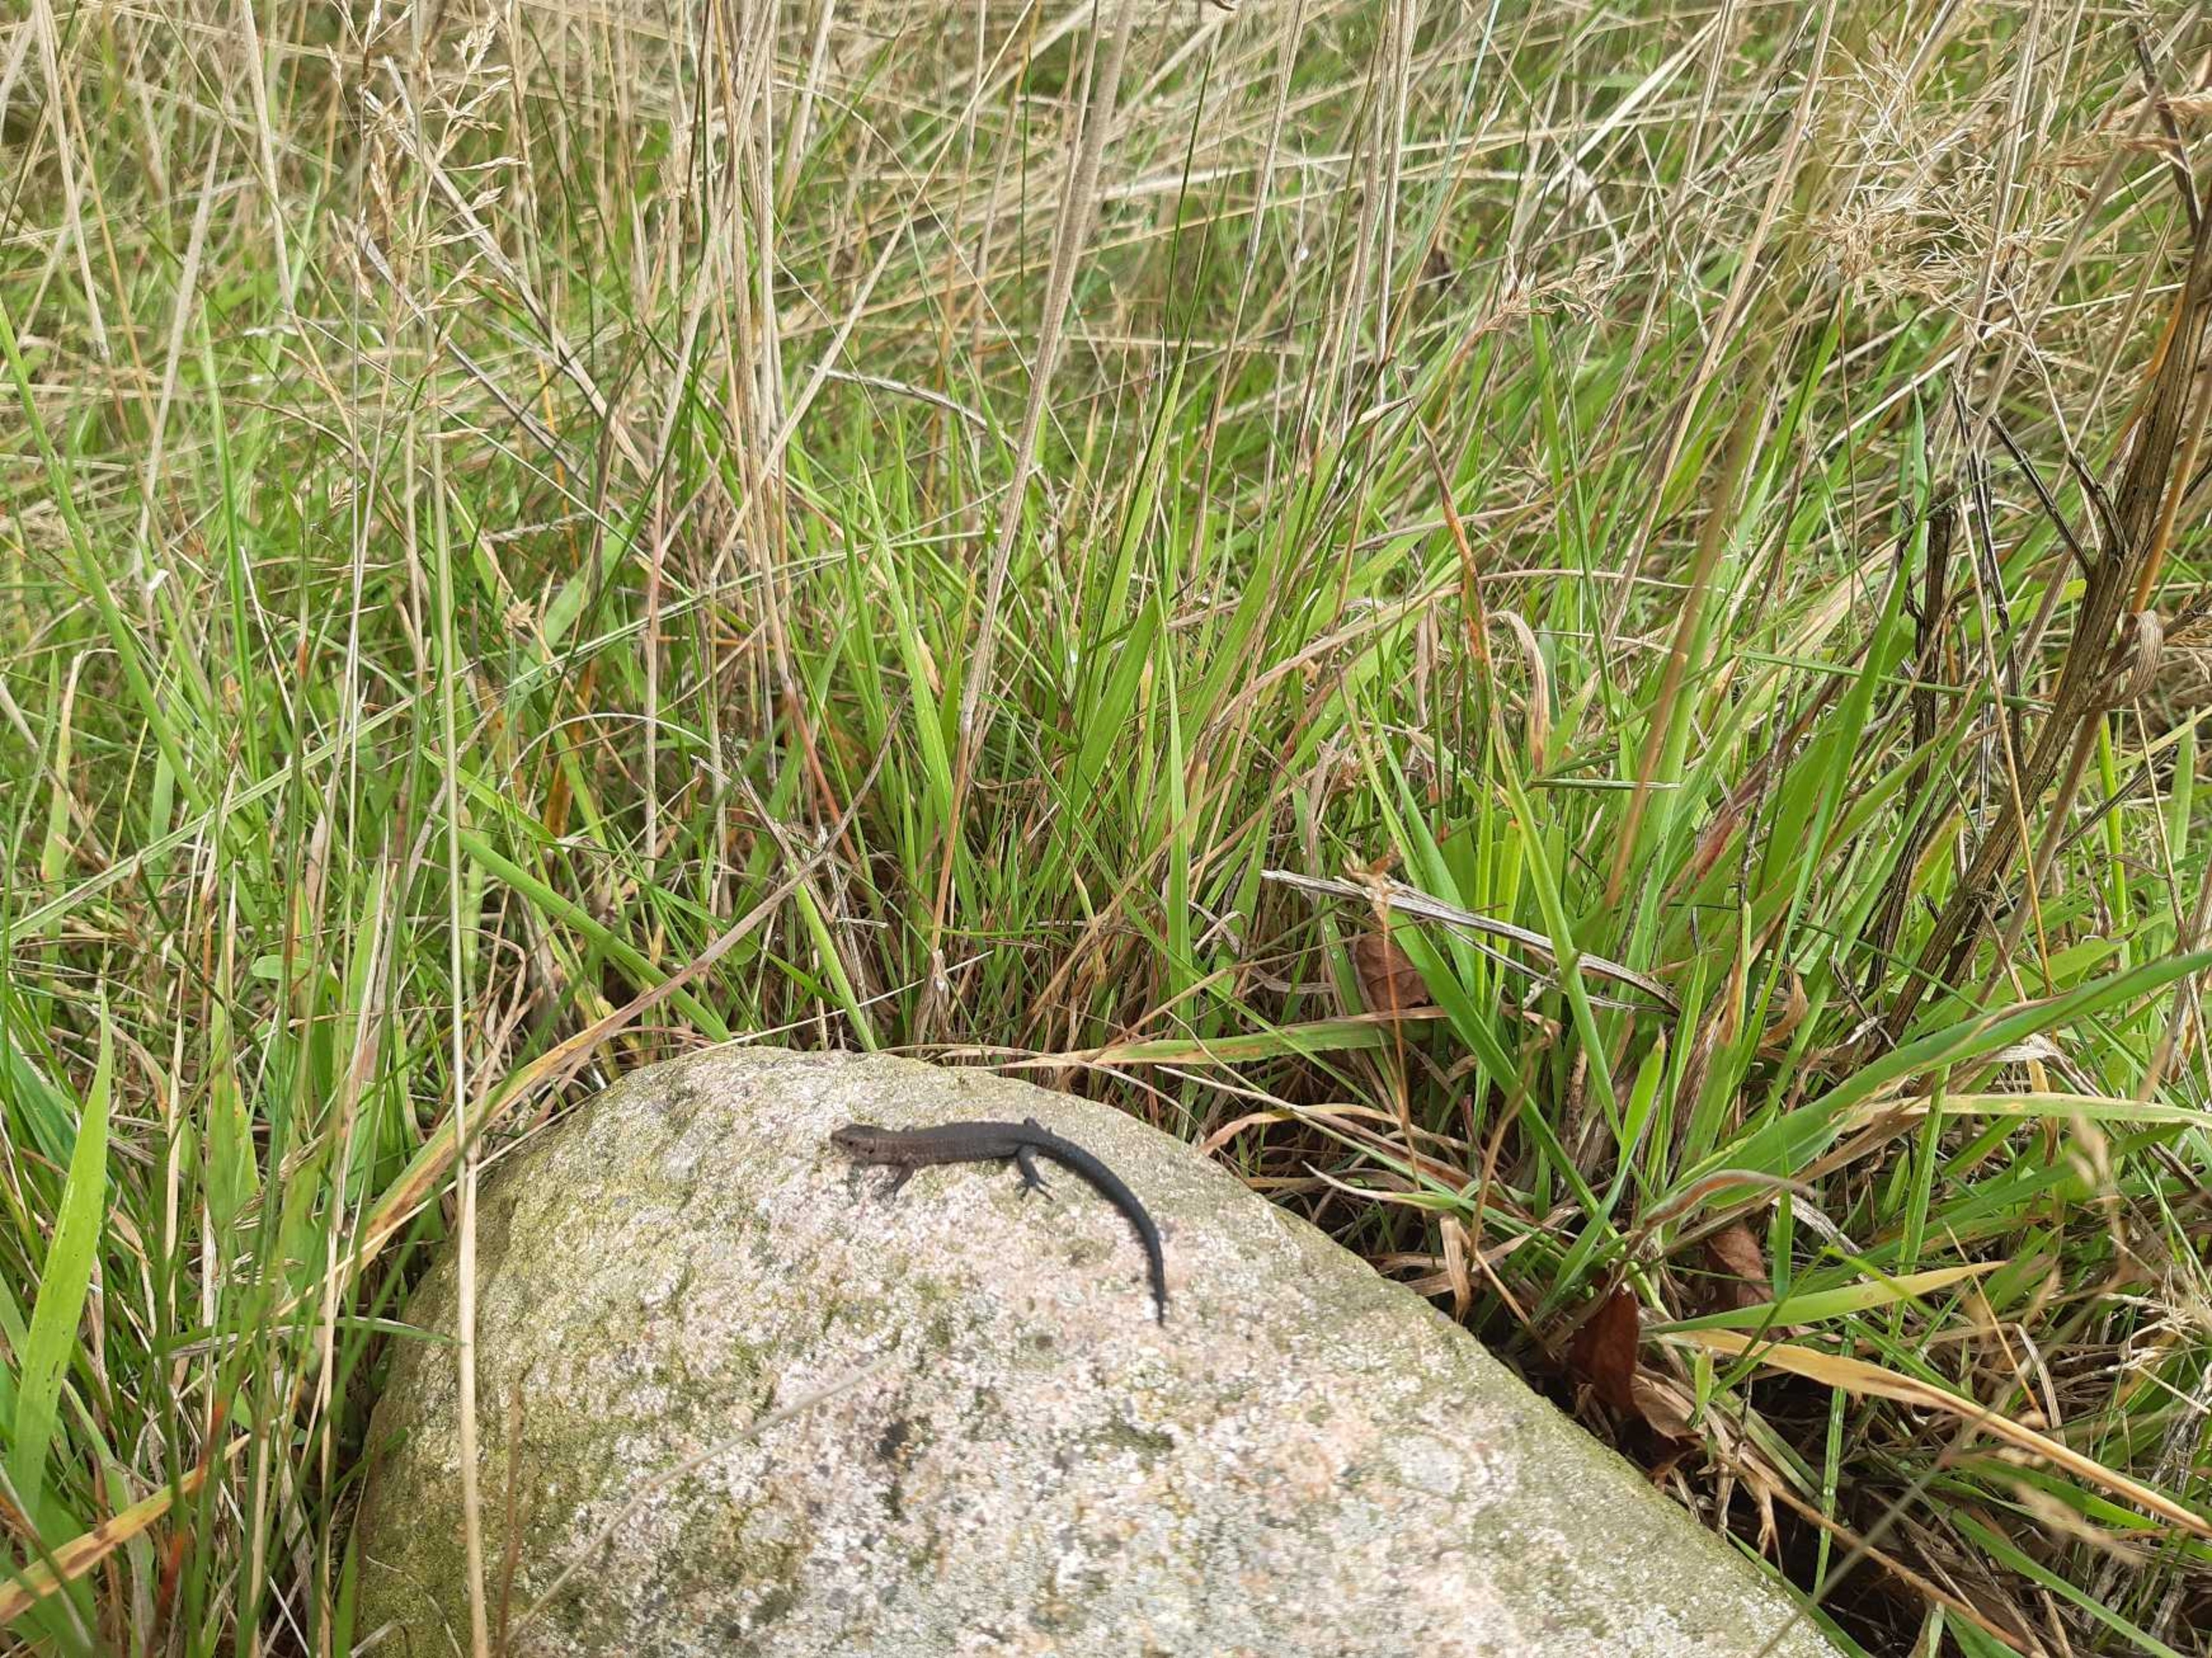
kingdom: Animalia
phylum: Chordata
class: Squamata
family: Lacertidae
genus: Zootoca
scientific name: Zootoca vivipara
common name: Skovfirben
